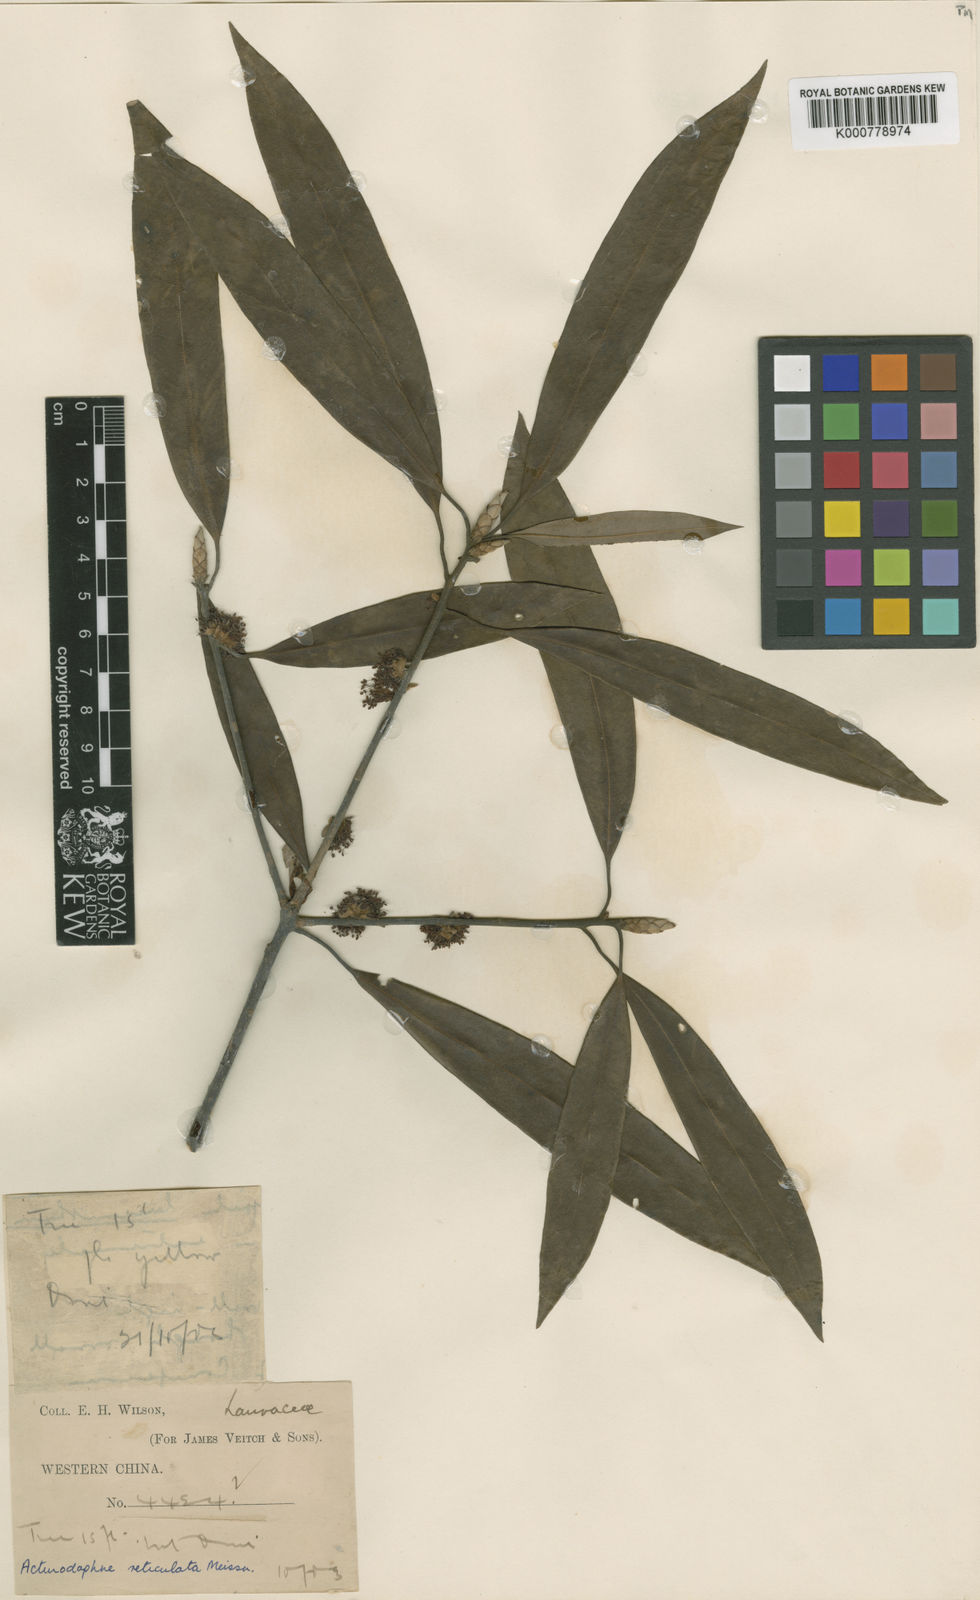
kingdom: Plantae
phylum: Tracheophyta
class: Magnoliopsida
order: Laurales
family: Lauraceae
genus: Litsea
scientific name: Litsea coreana
